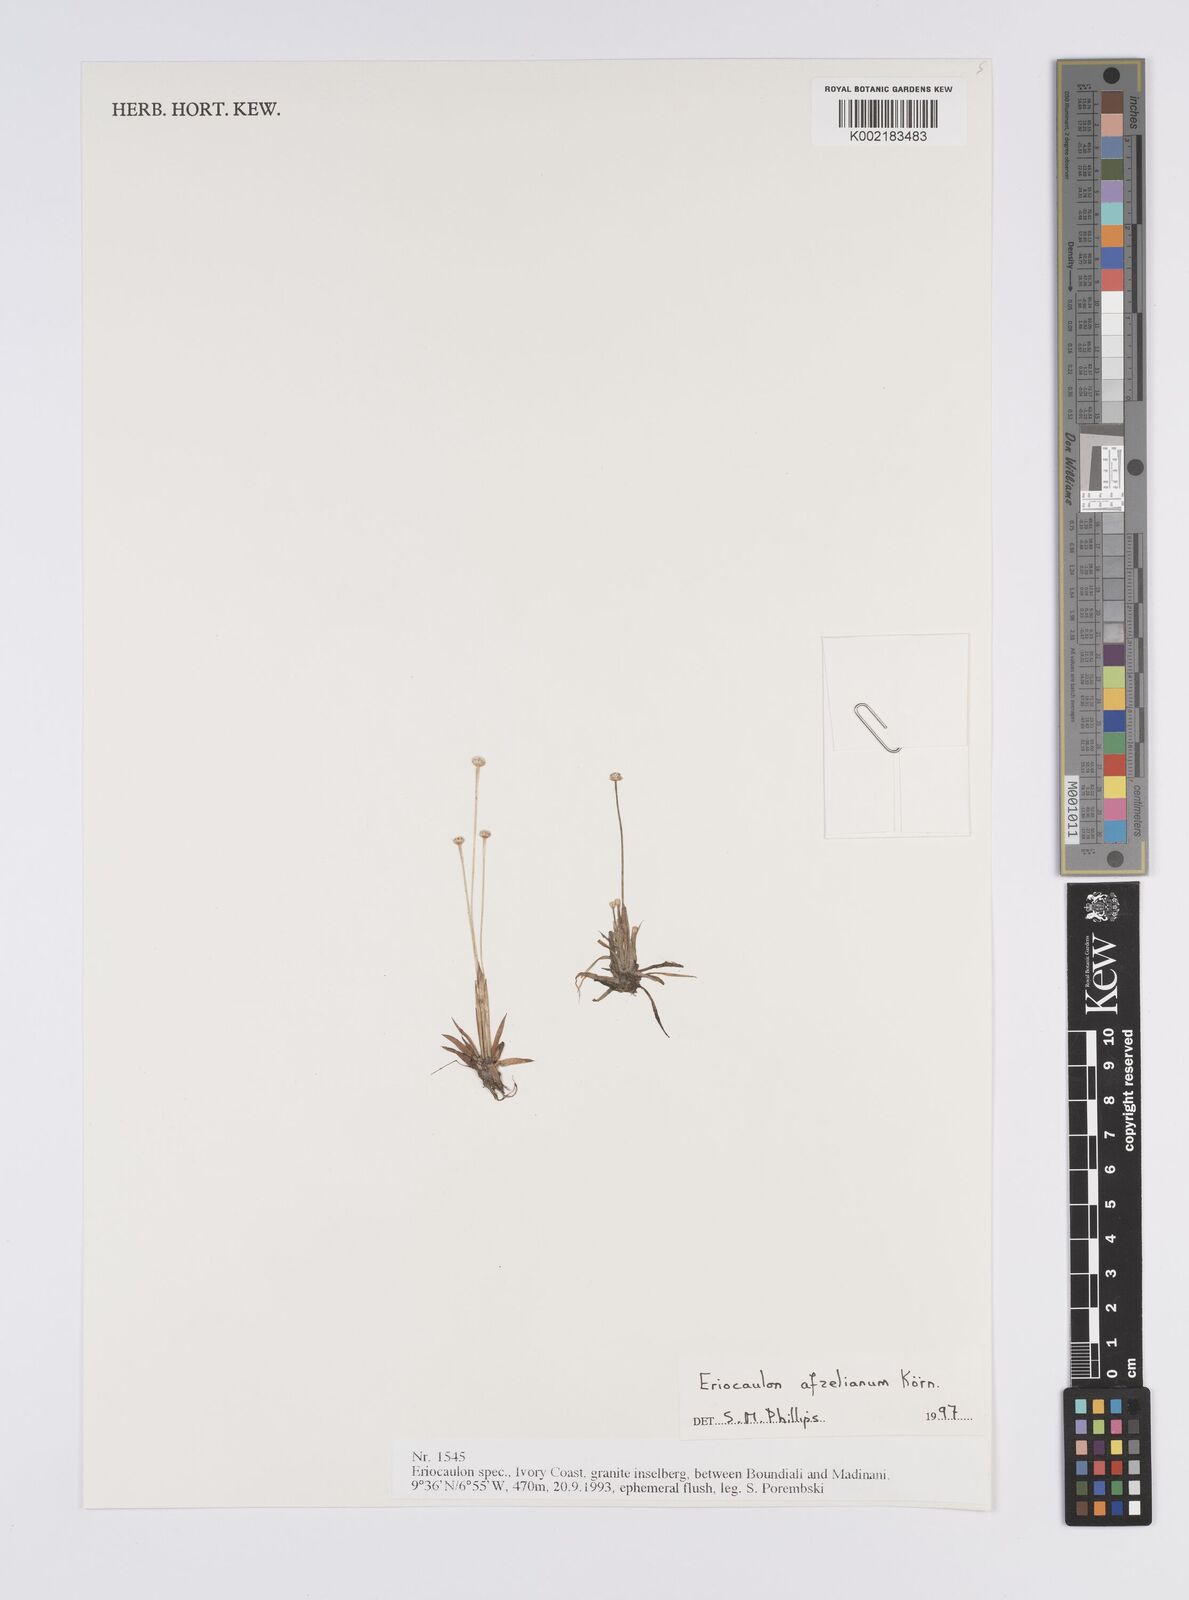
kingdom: Plantae
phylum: Tracheophyta
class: Liliopsida
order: Poales
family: Eriocaulaceae
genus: Eriocaulon
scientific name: Eriocaulon afzelianum
